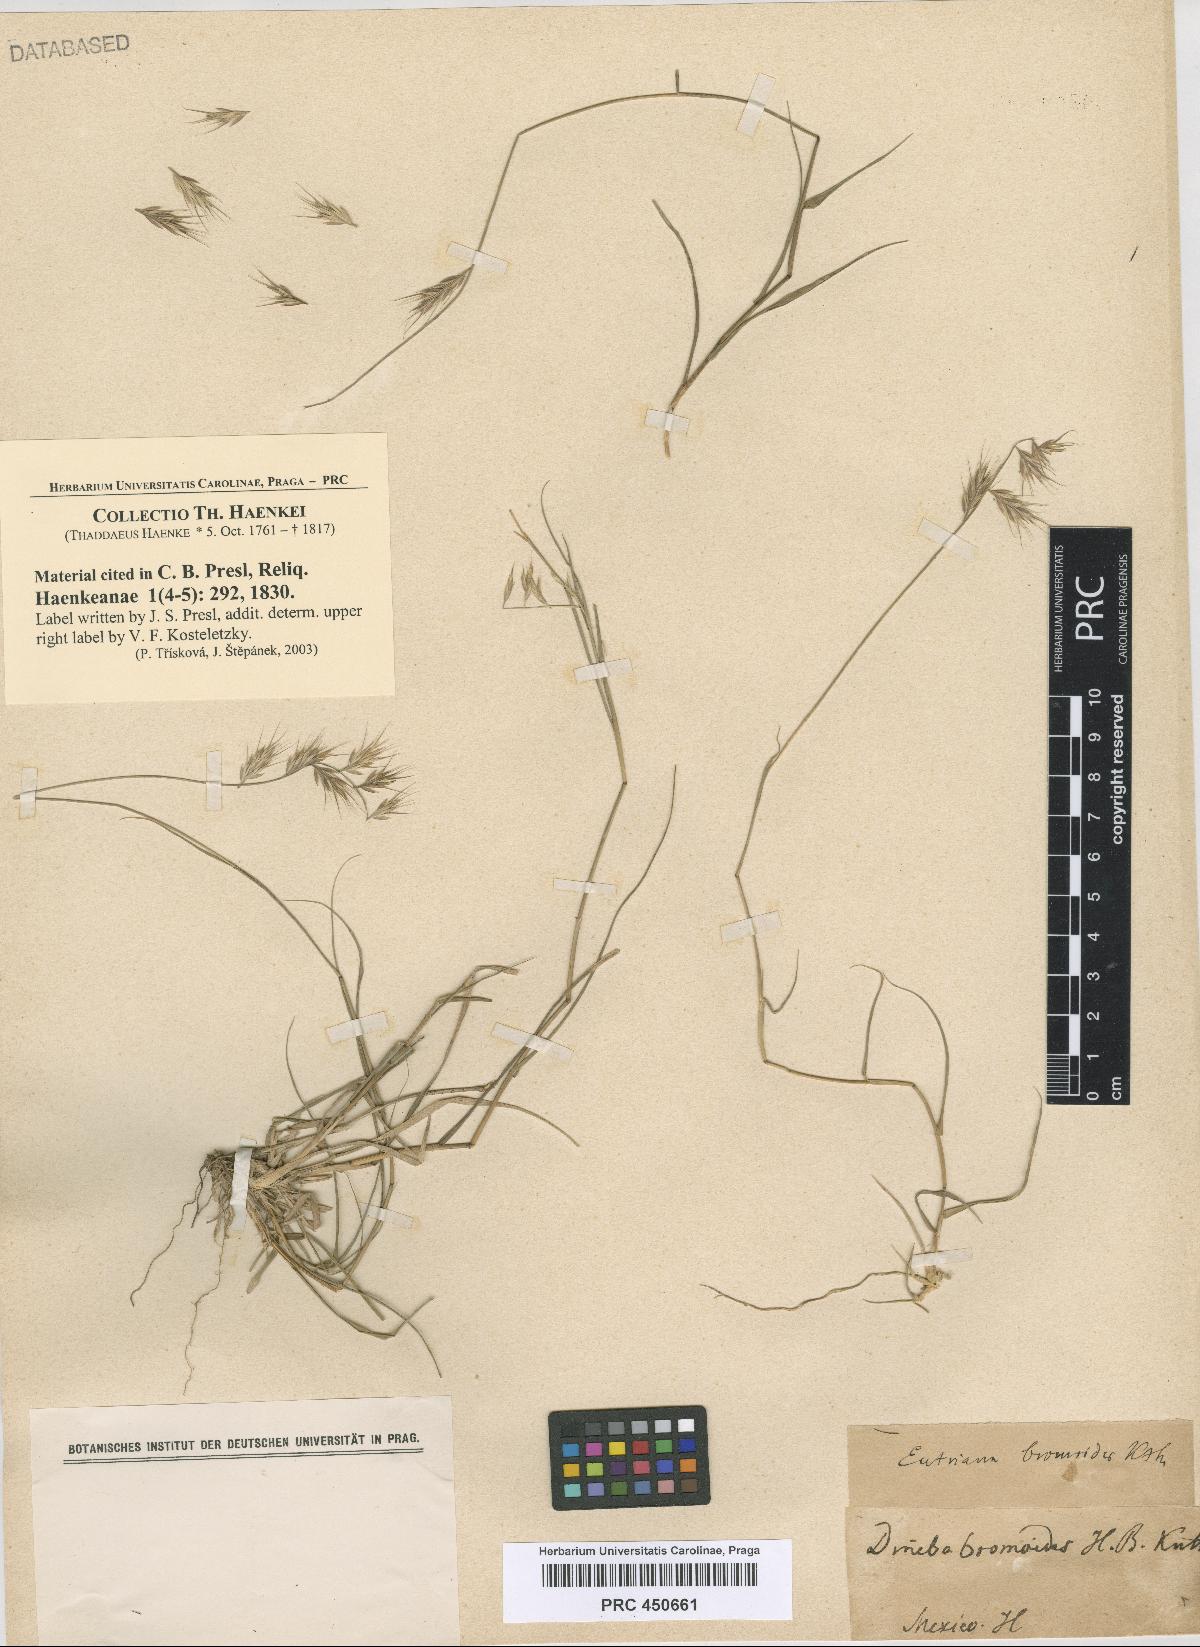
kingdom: Plantae
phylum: Tracheophyta
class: Liliopsida
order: Poales
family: Poaceae
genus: Dineba
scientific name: Dineba
